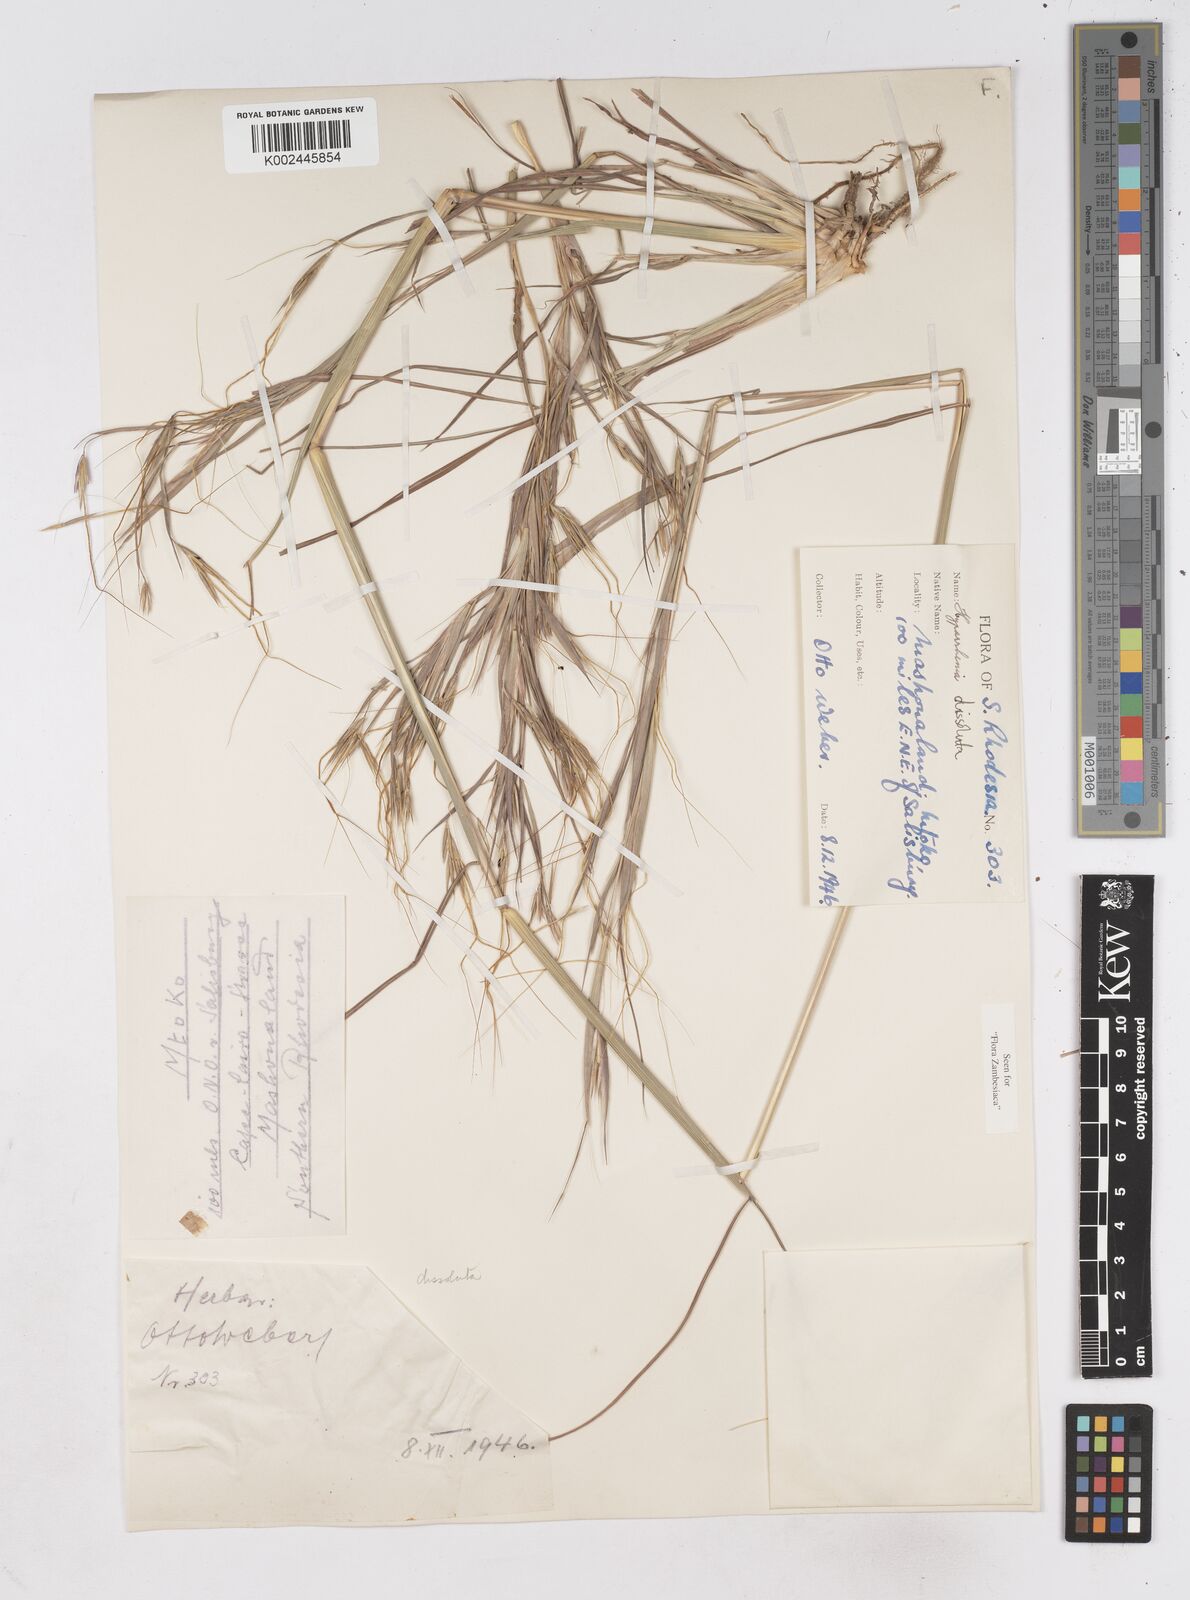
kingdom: Plantae
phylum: Tracheophyta
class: Liliopsida
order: Poales
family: Poaceae
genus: Hyperthelia
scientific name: Hyperthelia dissoluta
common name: Yellow thatching grass
